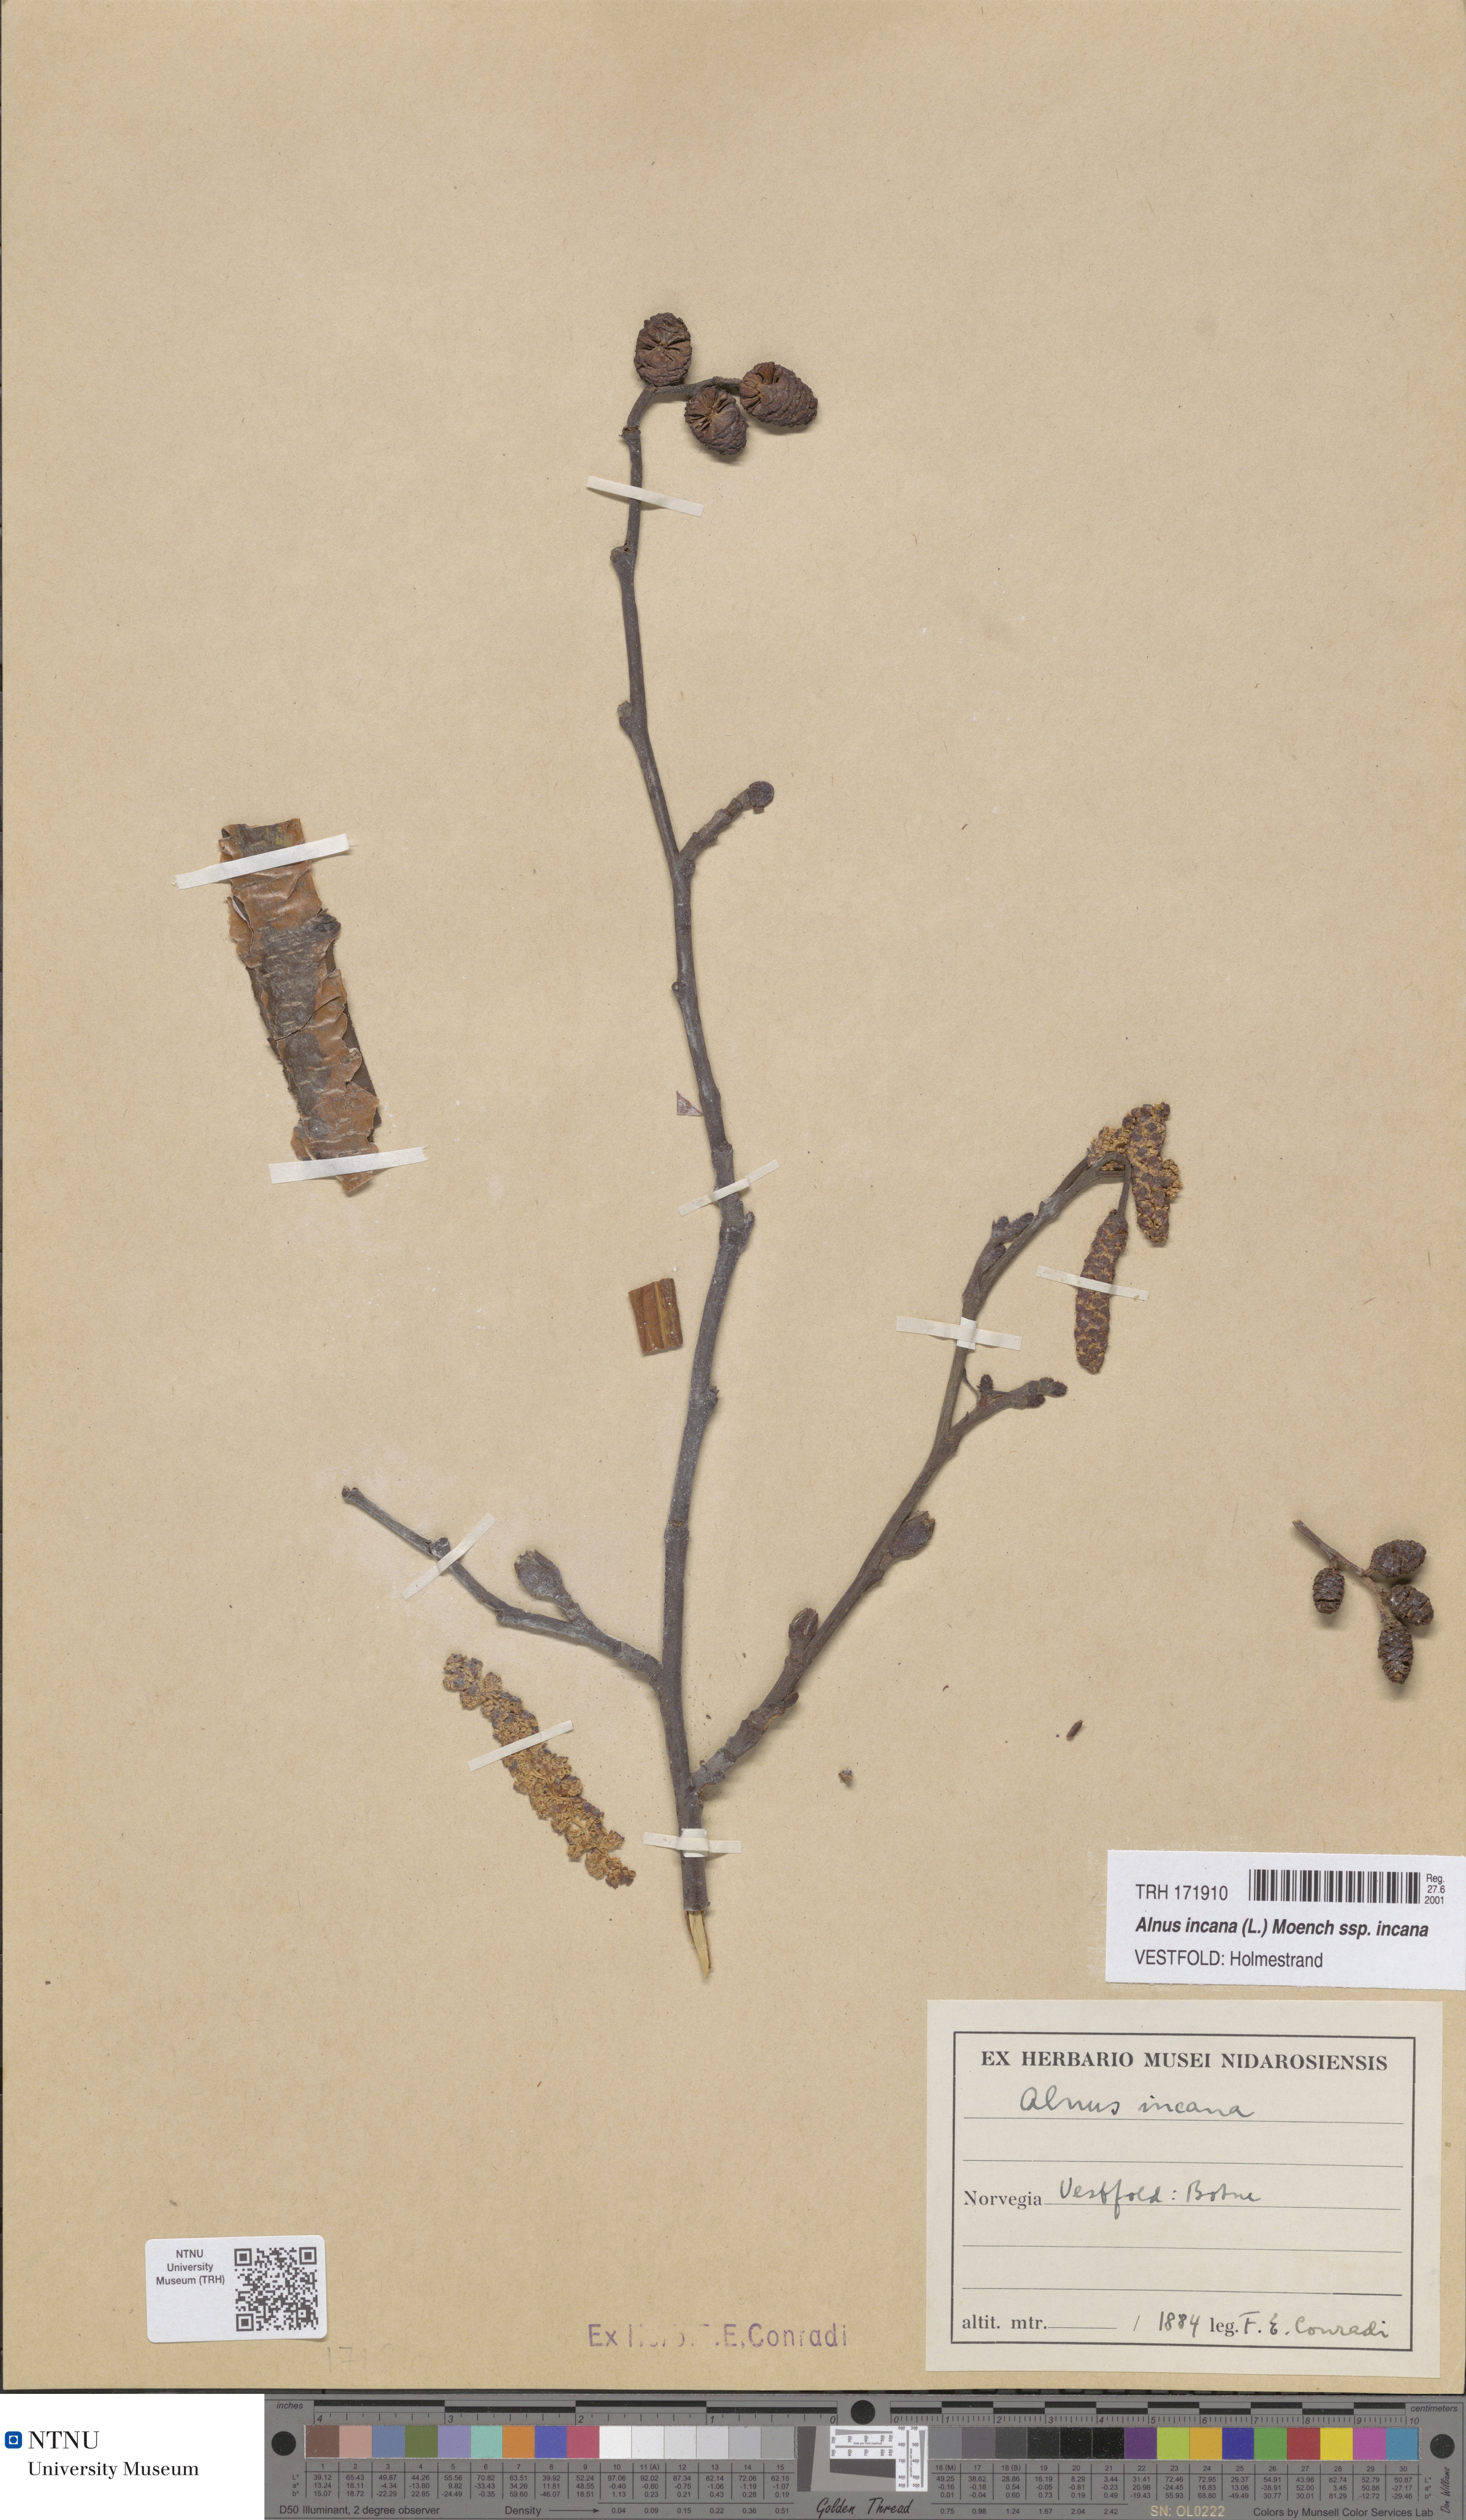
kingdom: Plantae
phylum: Tracheophyta
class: Magnoliopsida
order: Fagales
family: Betulaceae
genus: Alnus
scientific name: Alnus incana
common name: Grey alder
